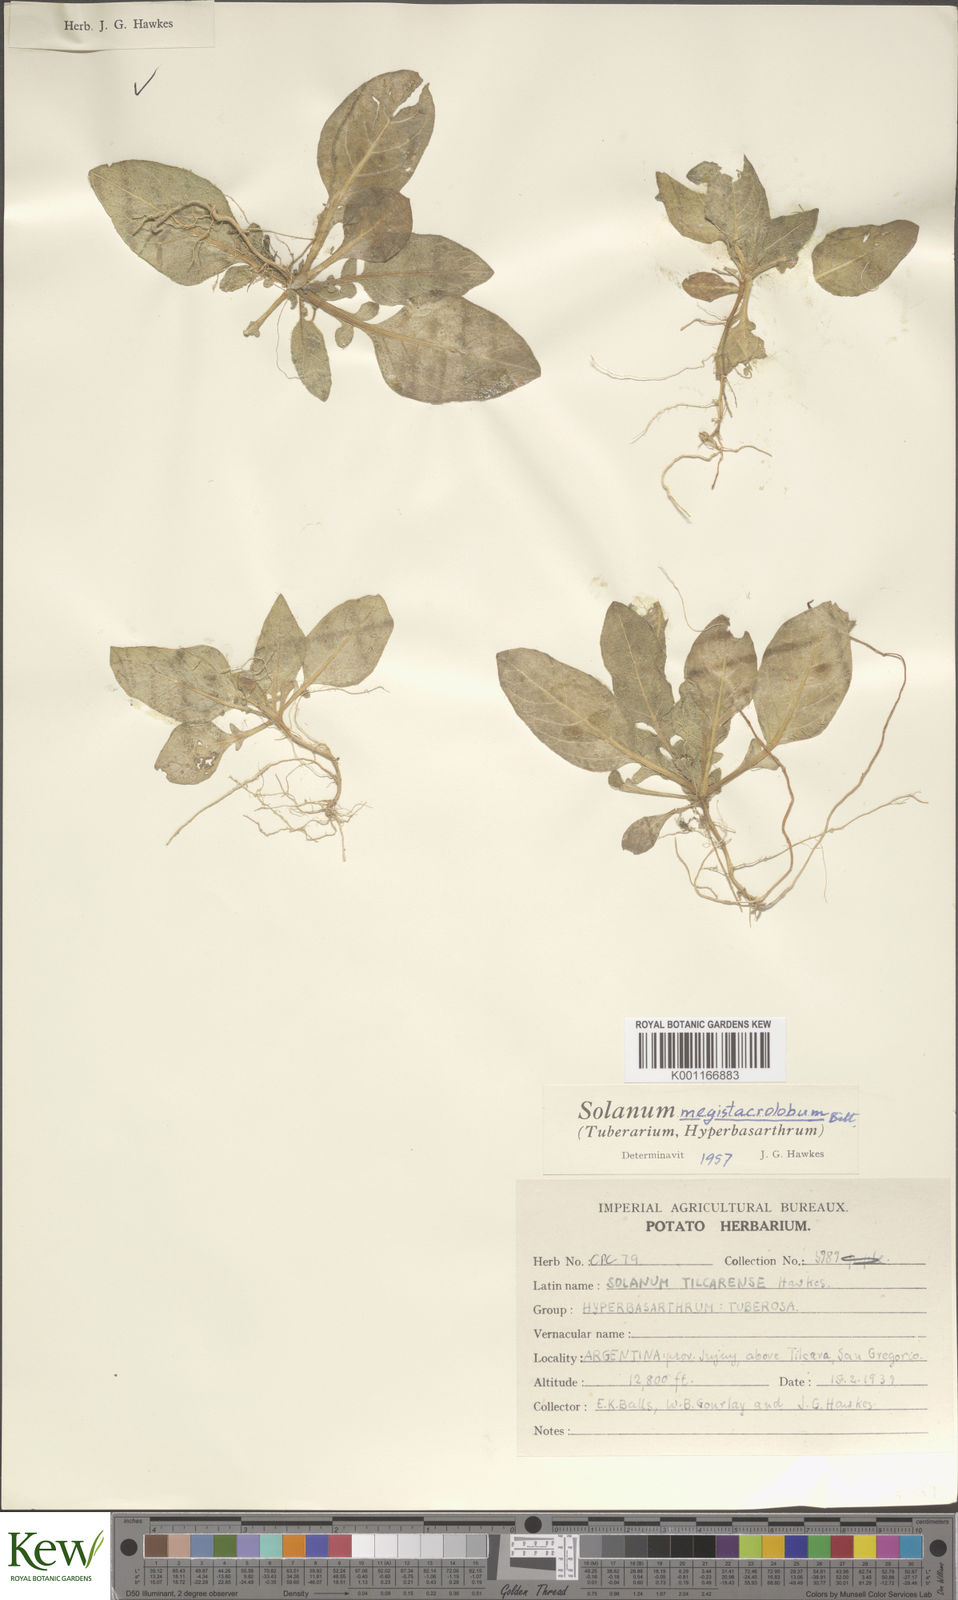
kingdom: Plantae
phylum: Tracheophyta
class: Magnoliopsida
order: Solanales
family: Solanaceae
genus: Solanum
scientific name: Solanum boliviense
